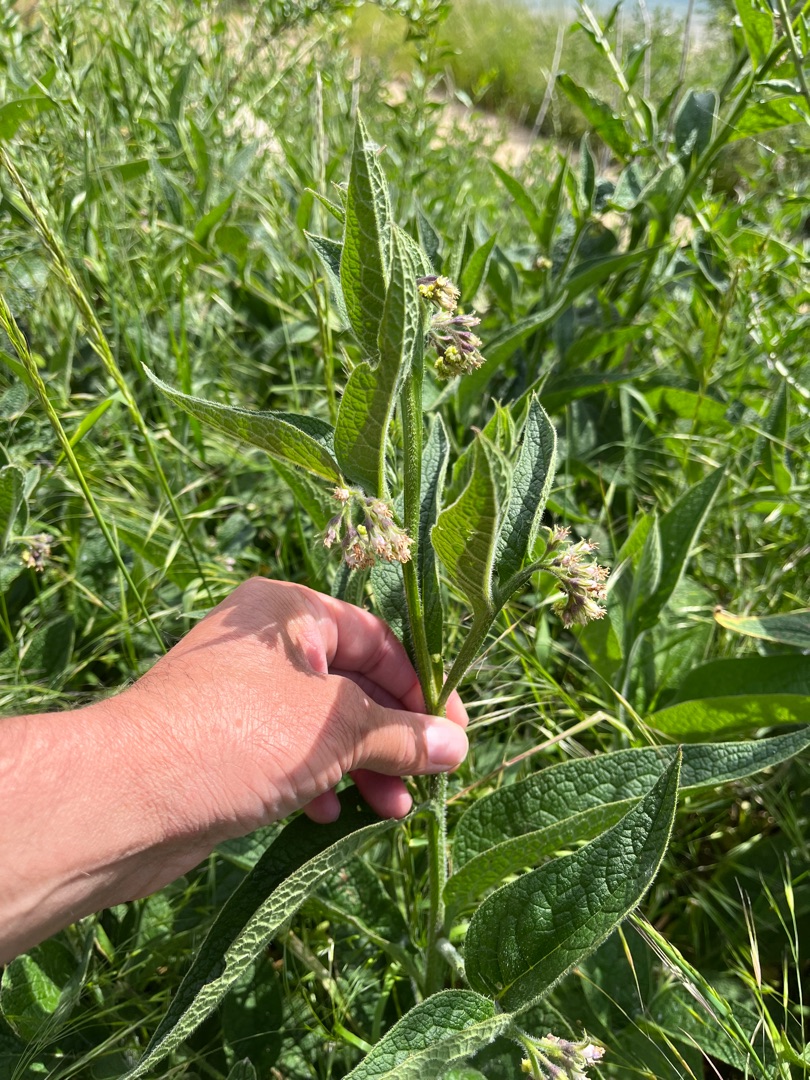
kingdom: Plantae
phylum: Tracheophyta
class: Magnoliopsida
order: Boraginales
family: Boraginaceae
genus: Symphytum
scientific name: Symphytum officinale
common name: Læge-kulsukker
